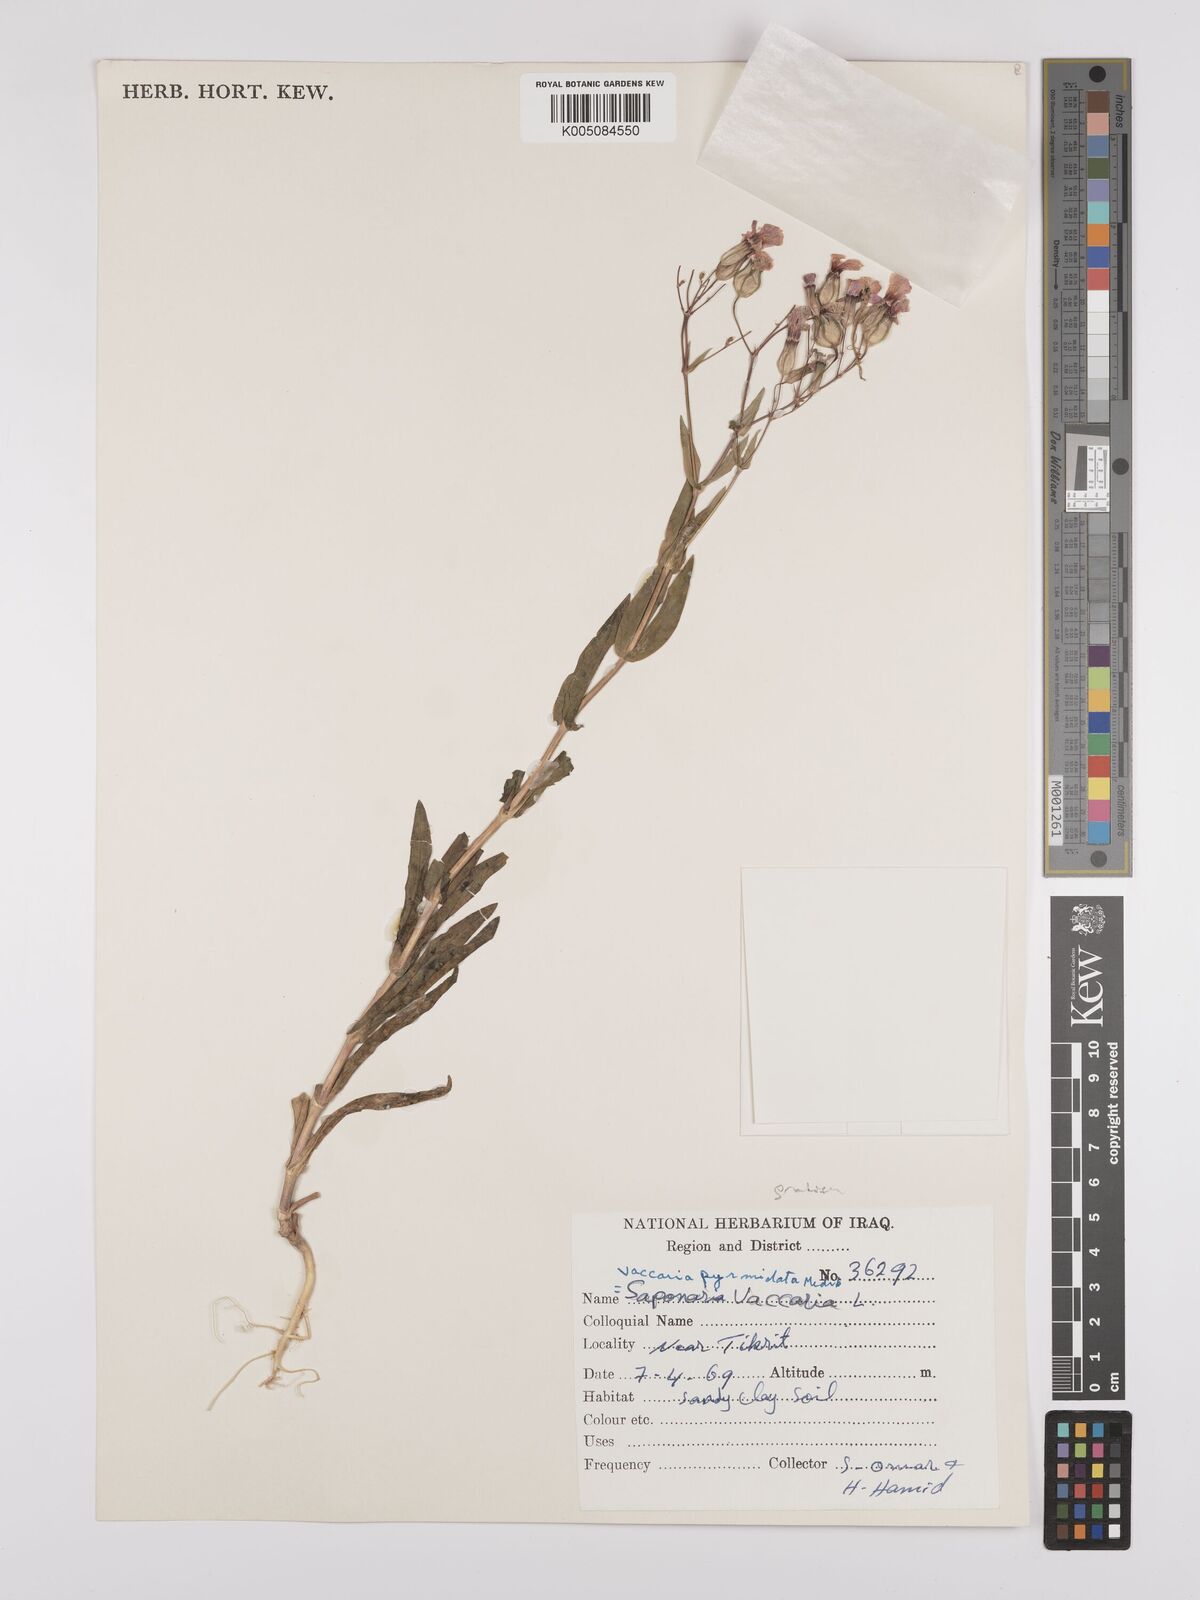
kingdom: Plantae
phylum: Tracheophyta
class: Magnoliopsida
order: Caryophyllales
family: Caryophyllaceae
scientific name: Caryophyllaceae
